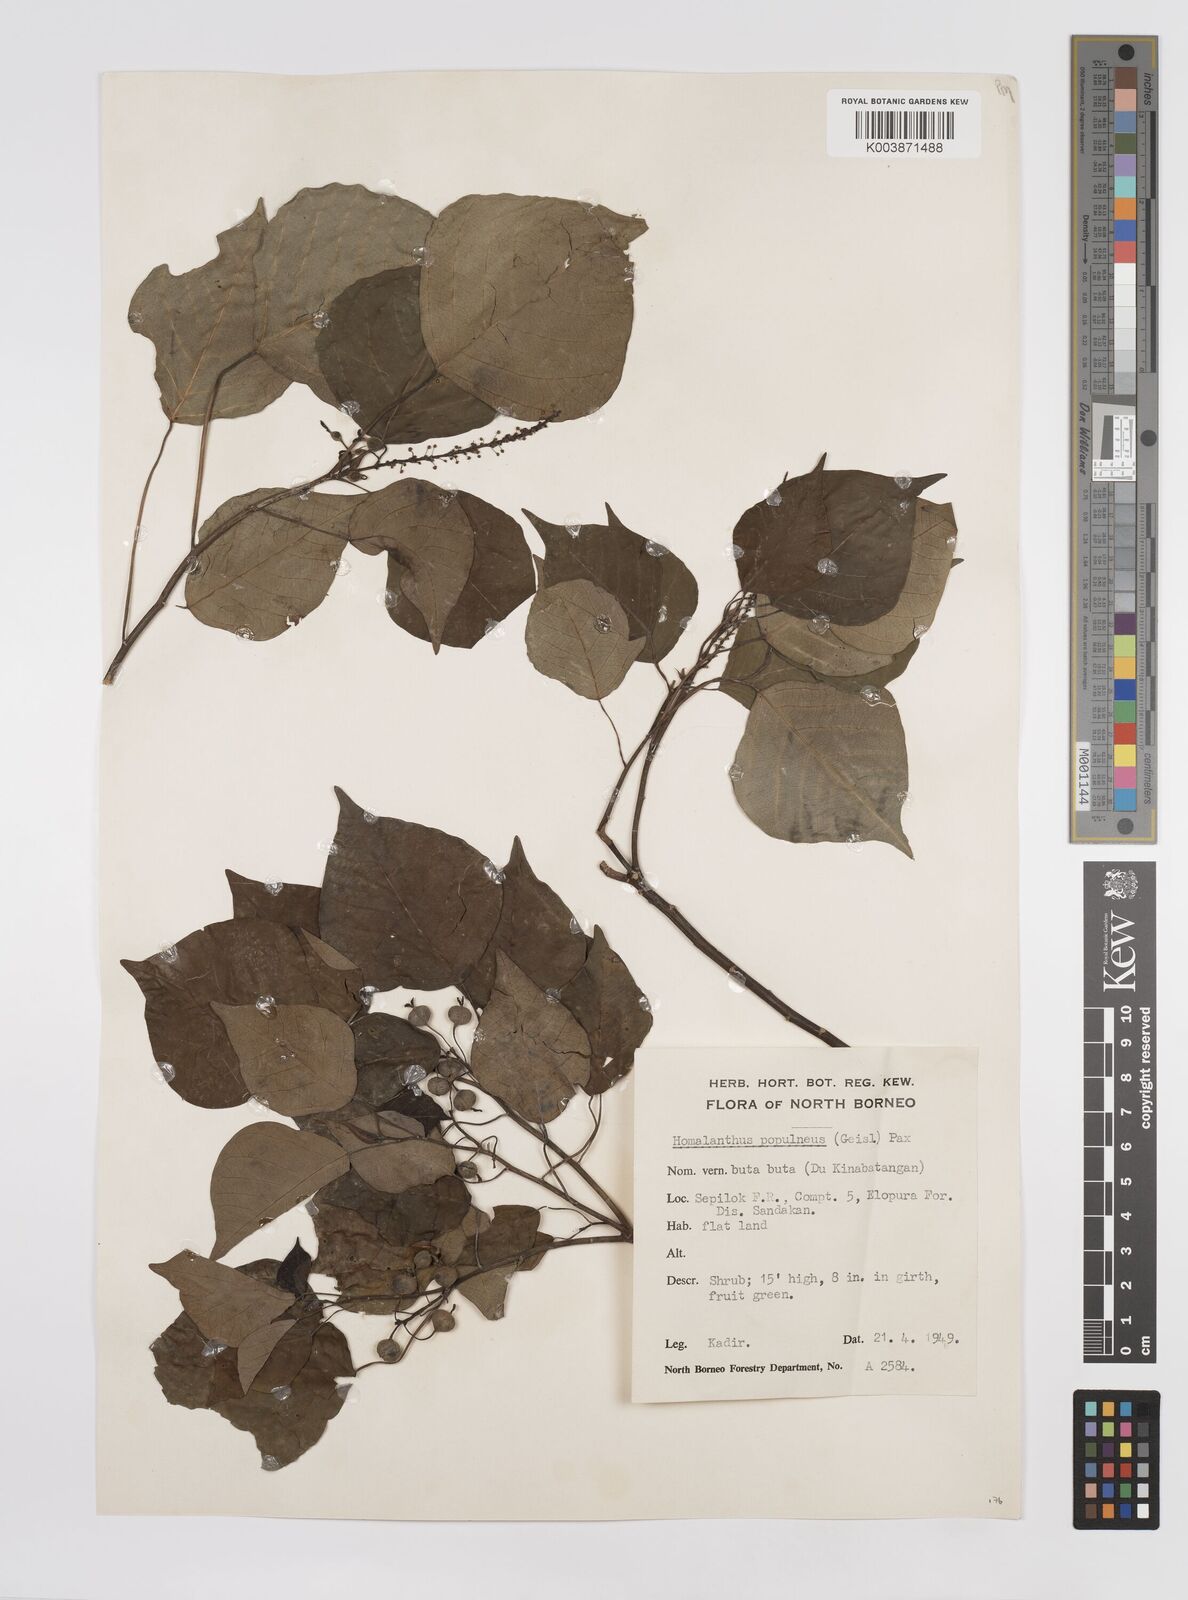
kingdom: Plantae
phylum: Tracheophyta
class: Magnoliopsida
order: Malpighiales
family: Euphorbiaceae
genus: Homalanthus
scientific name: Homalanthus populneus
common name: Spurge
